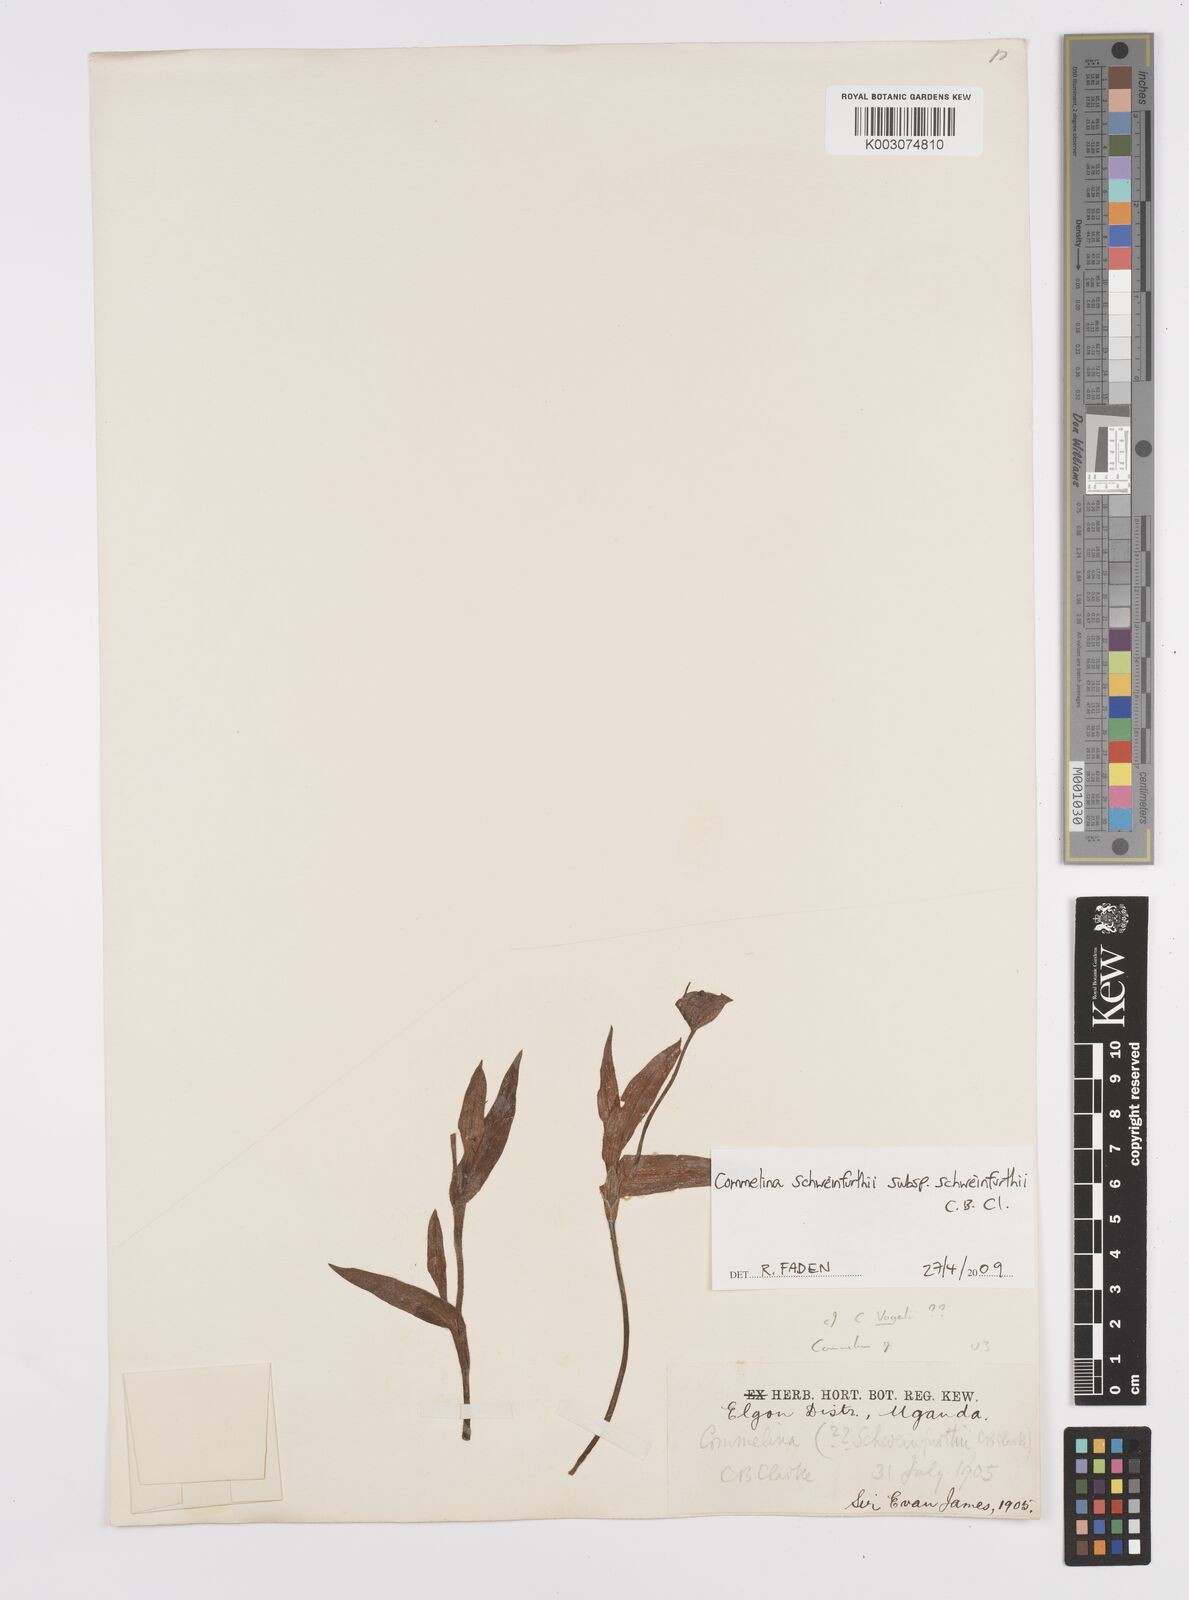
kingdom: Plantae
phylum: Tracheophyta
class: Liliopsida
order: Commelinales
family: Commelinaceae
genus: Commelina
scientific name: Commelina schweinfurthii
